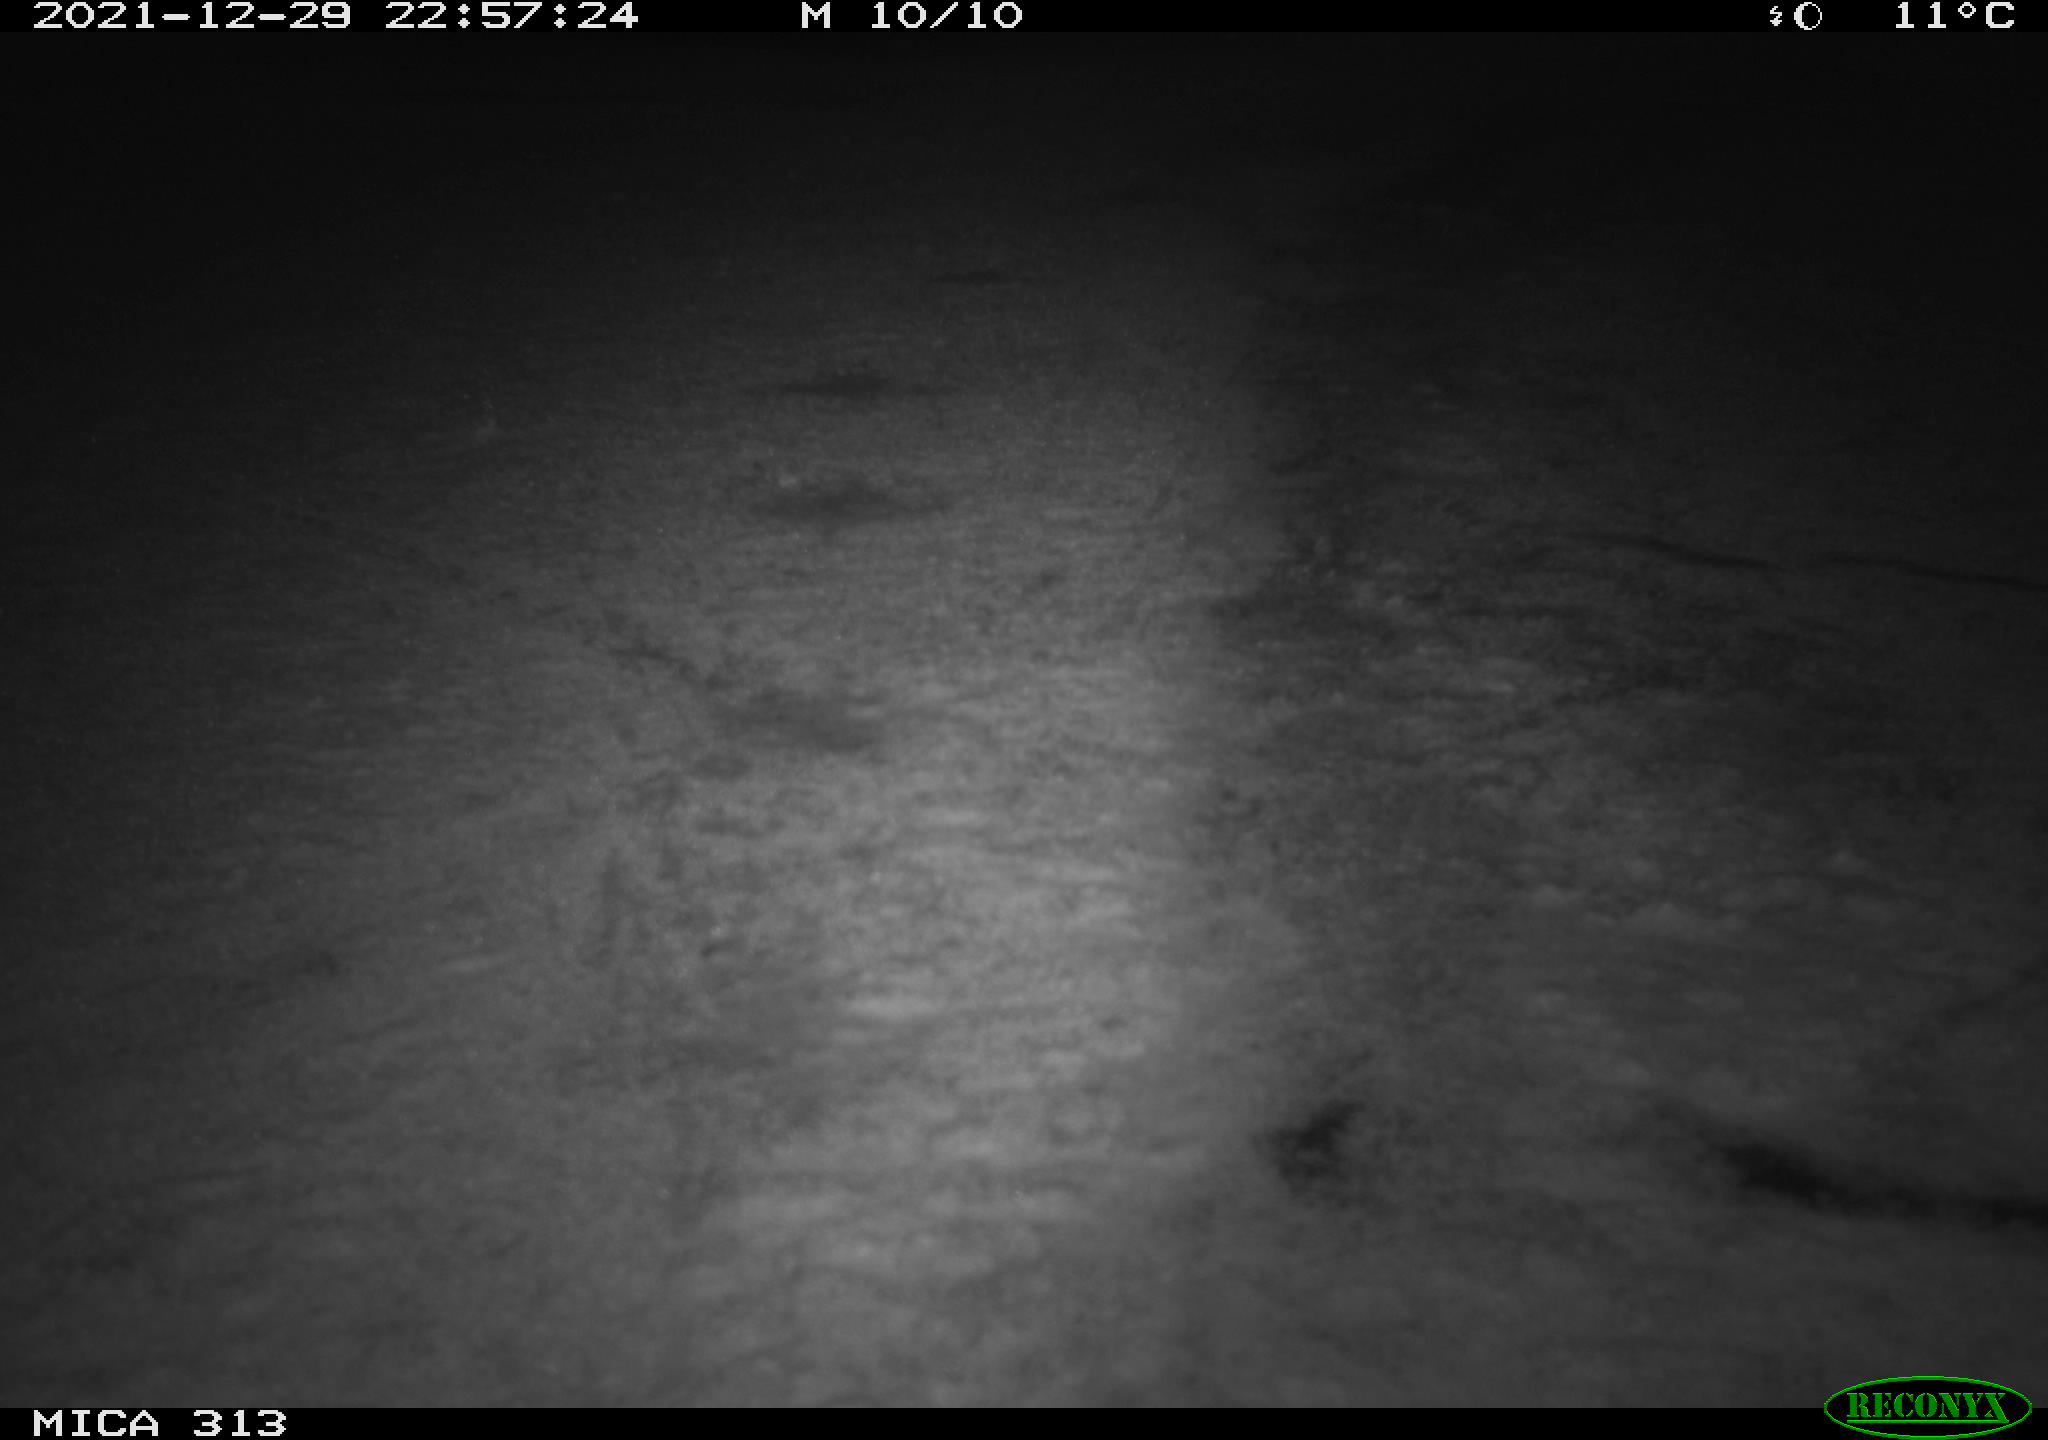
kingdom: Animalia
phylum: Chordata
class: Aves
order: Gruiformes
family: Rallidae
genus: Fulica
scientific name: Fulica atra
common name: Eurasian coot
